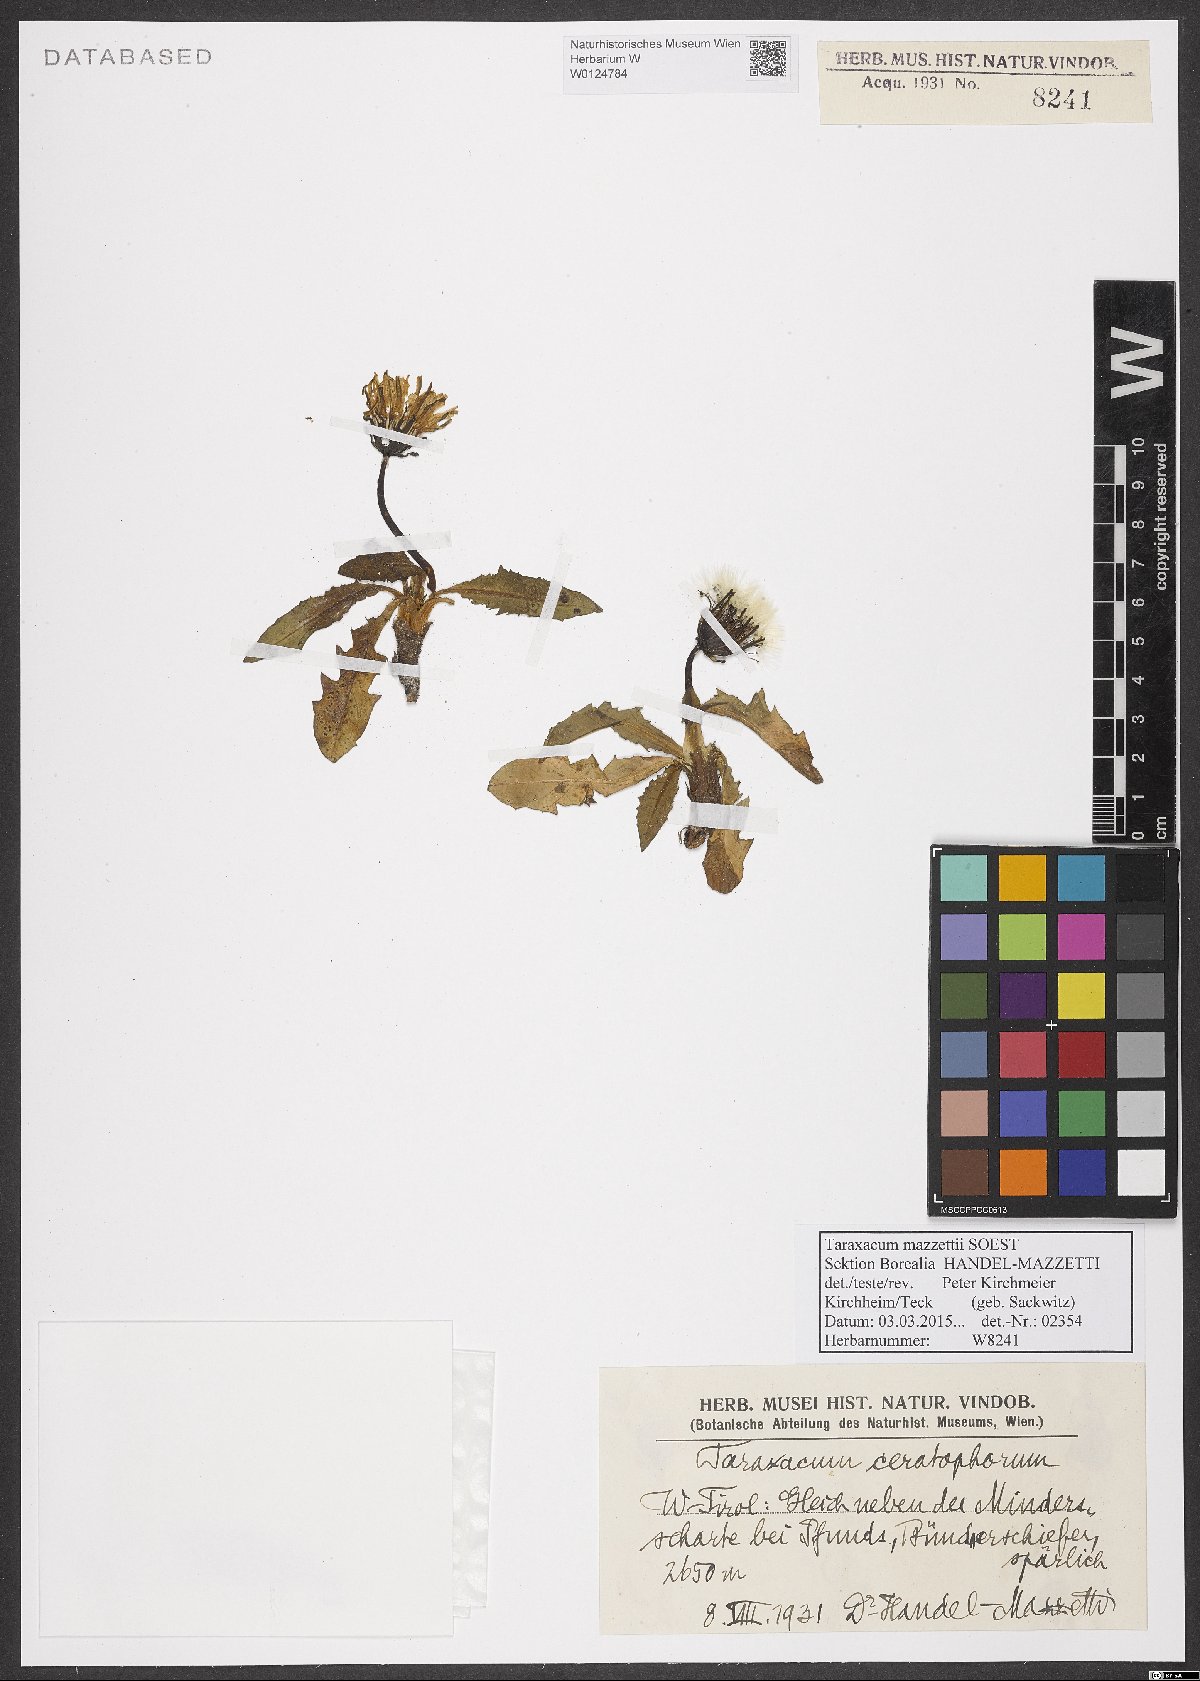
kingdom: Plantae
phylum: Tracheophyta
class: Magnoliopsida
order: Asterales
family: Asteraceae
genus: Taraxacum
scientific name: Taraxacum mazzetii
